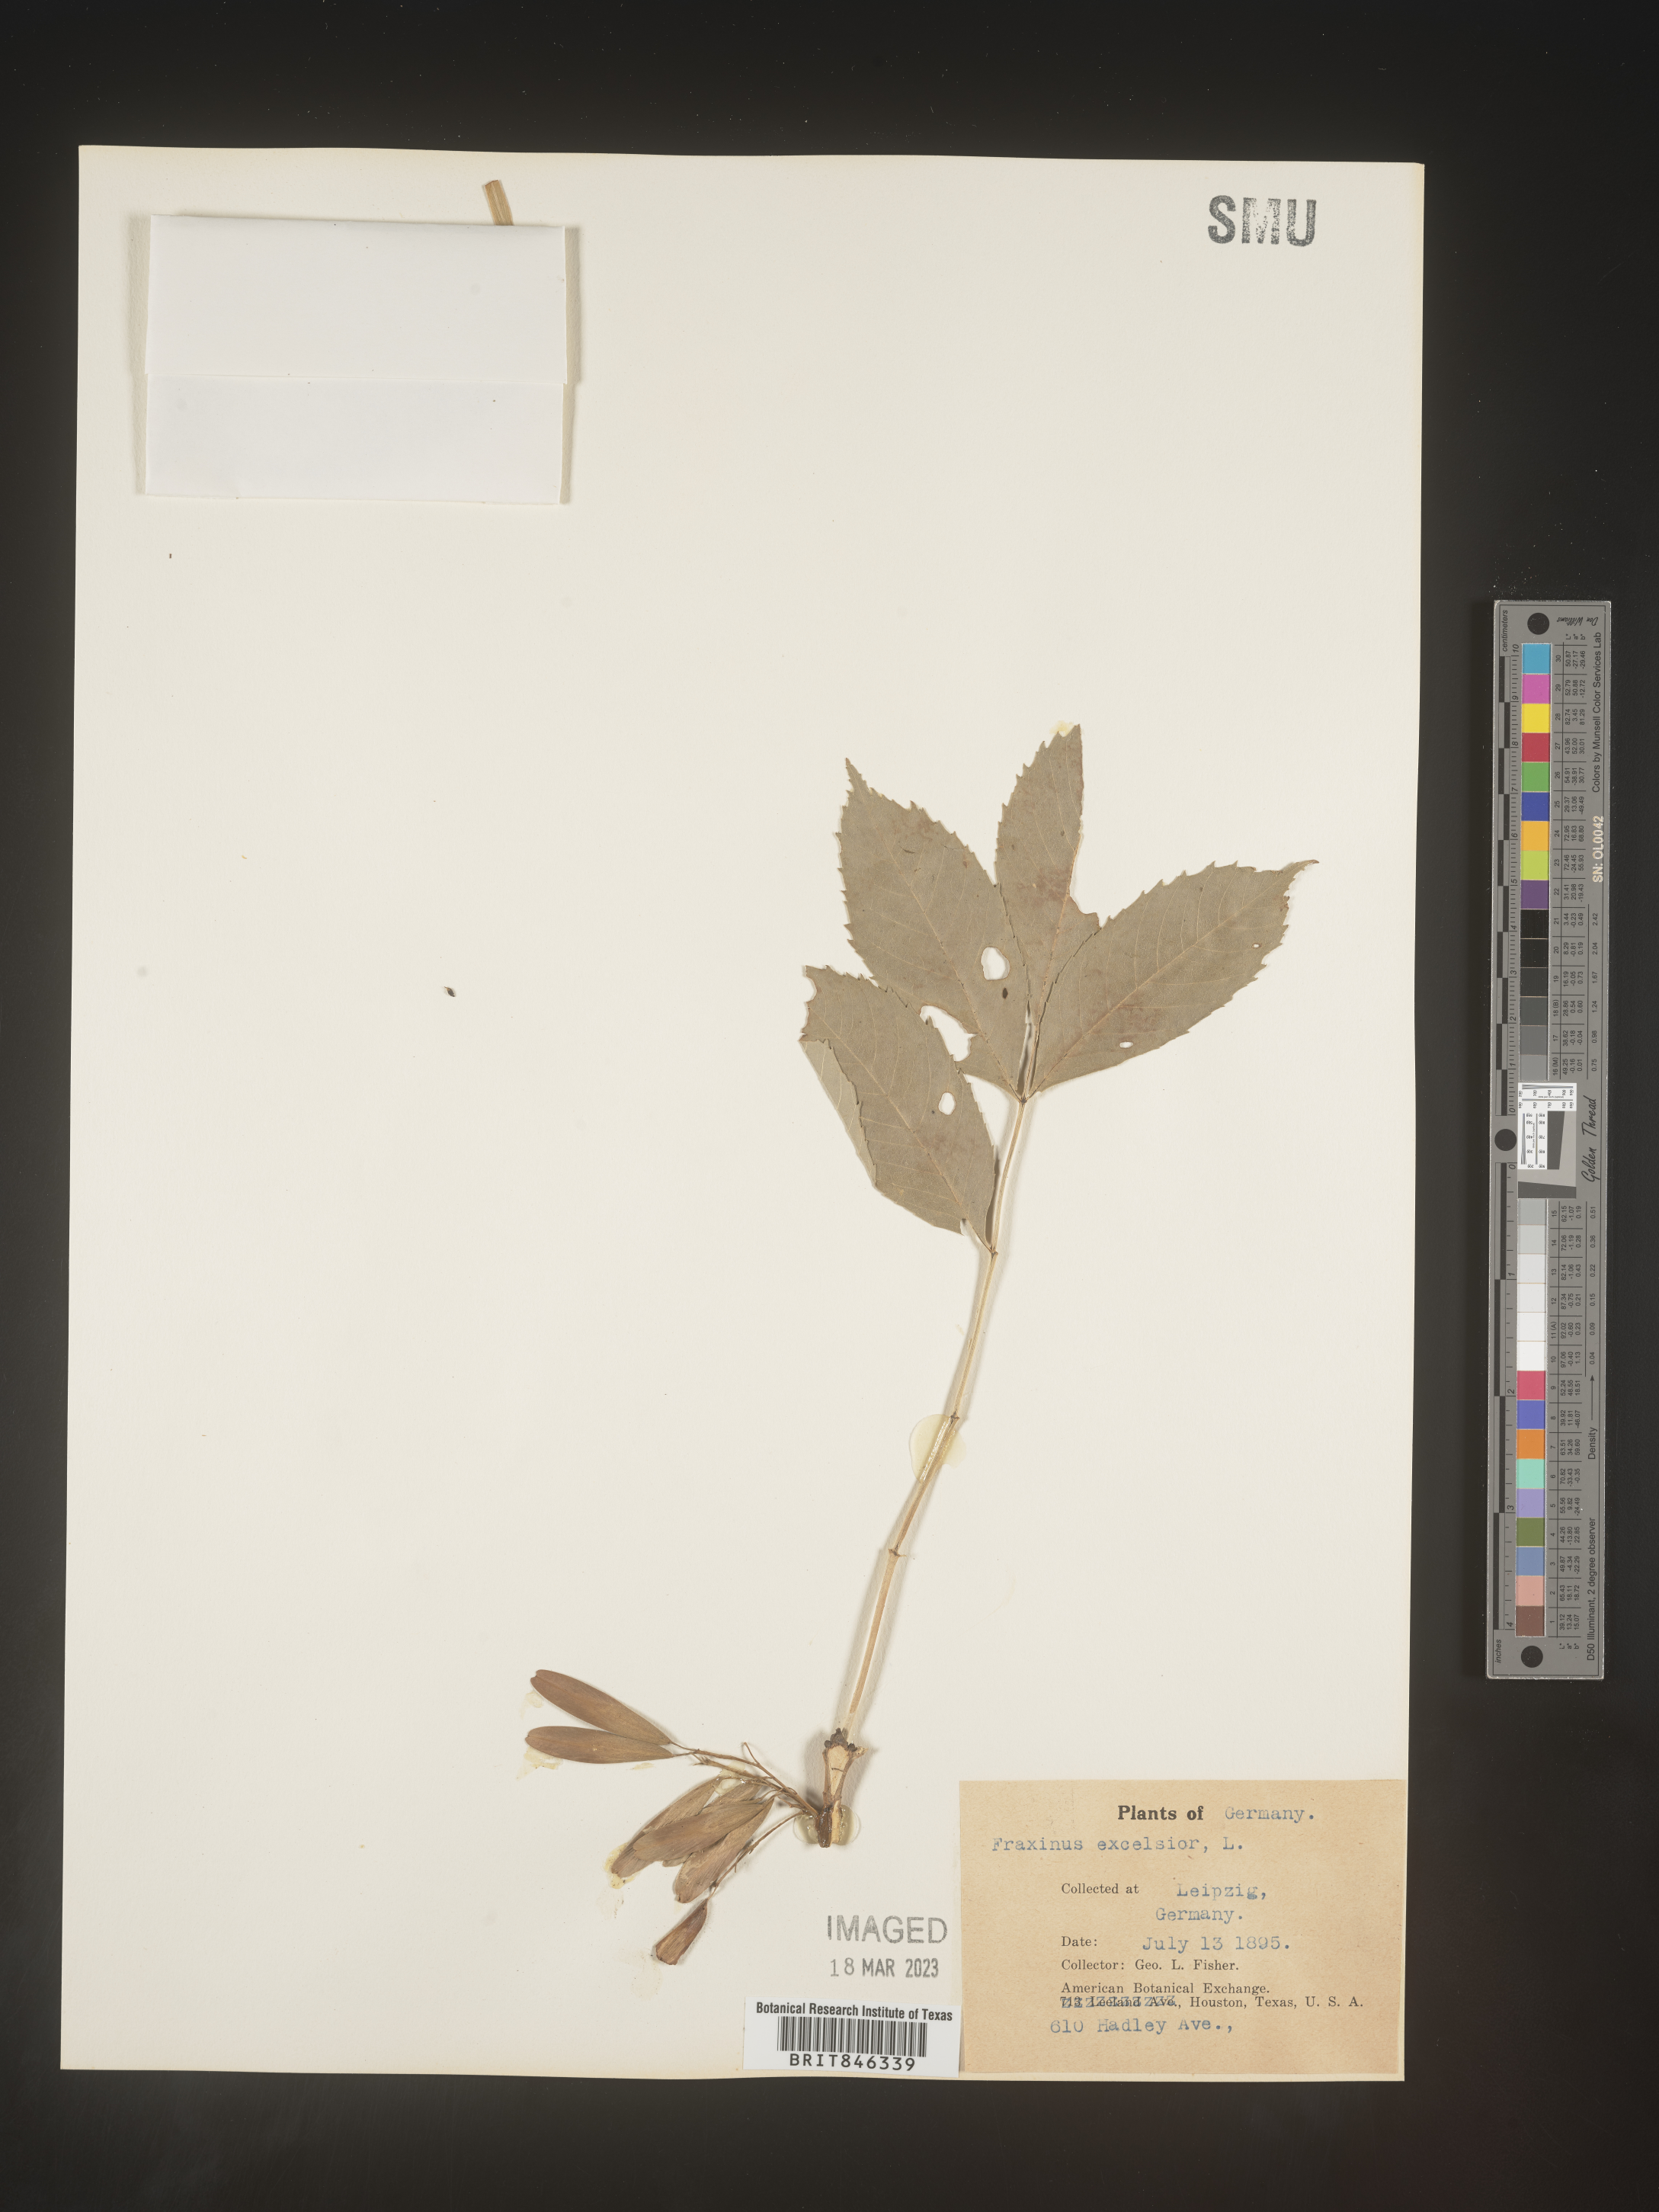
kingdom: Plantae
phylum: Tracheophyta
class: Magnoliopsida
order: Lamiales
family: Oleaceae
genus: Fraxinus
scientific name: Fraxinus
